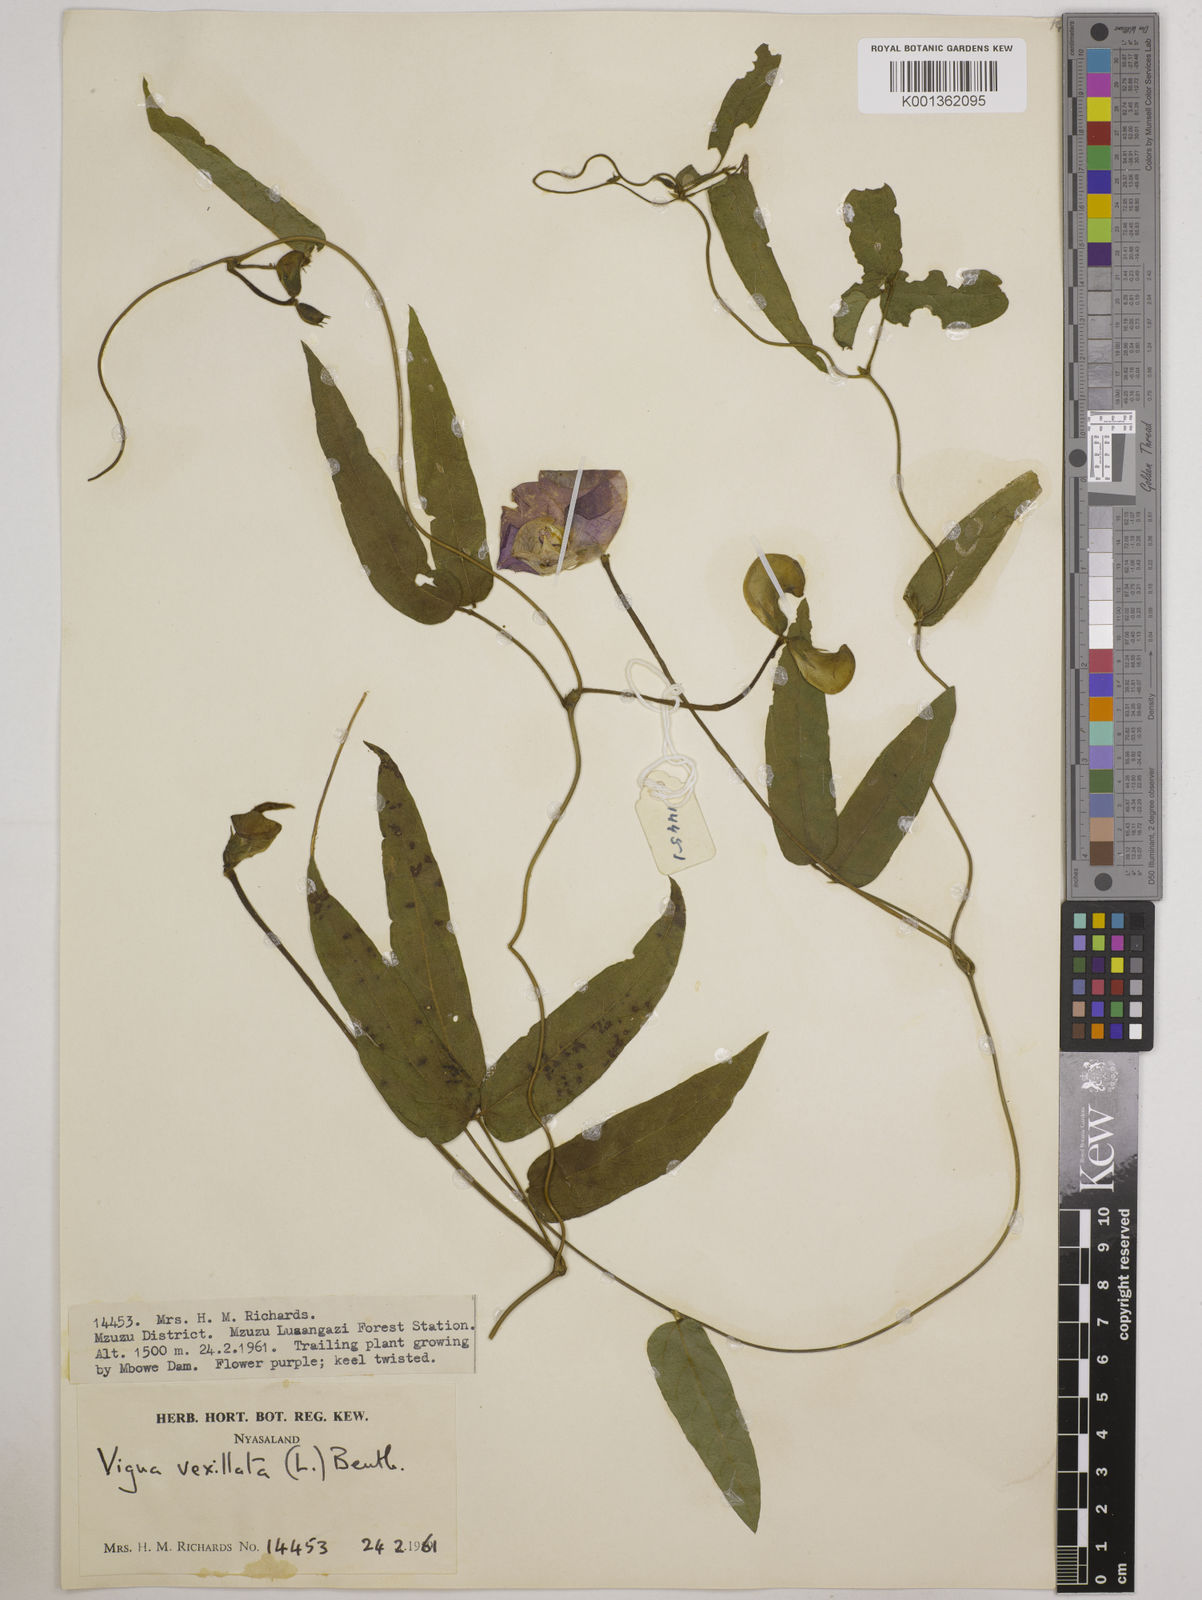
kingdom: Plantae
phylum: Tracheophyta
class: Magnoliopsida
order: Fabales
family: Fabaceae
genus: Vigna
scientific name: Vigna vexillata
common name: Zombi pea
